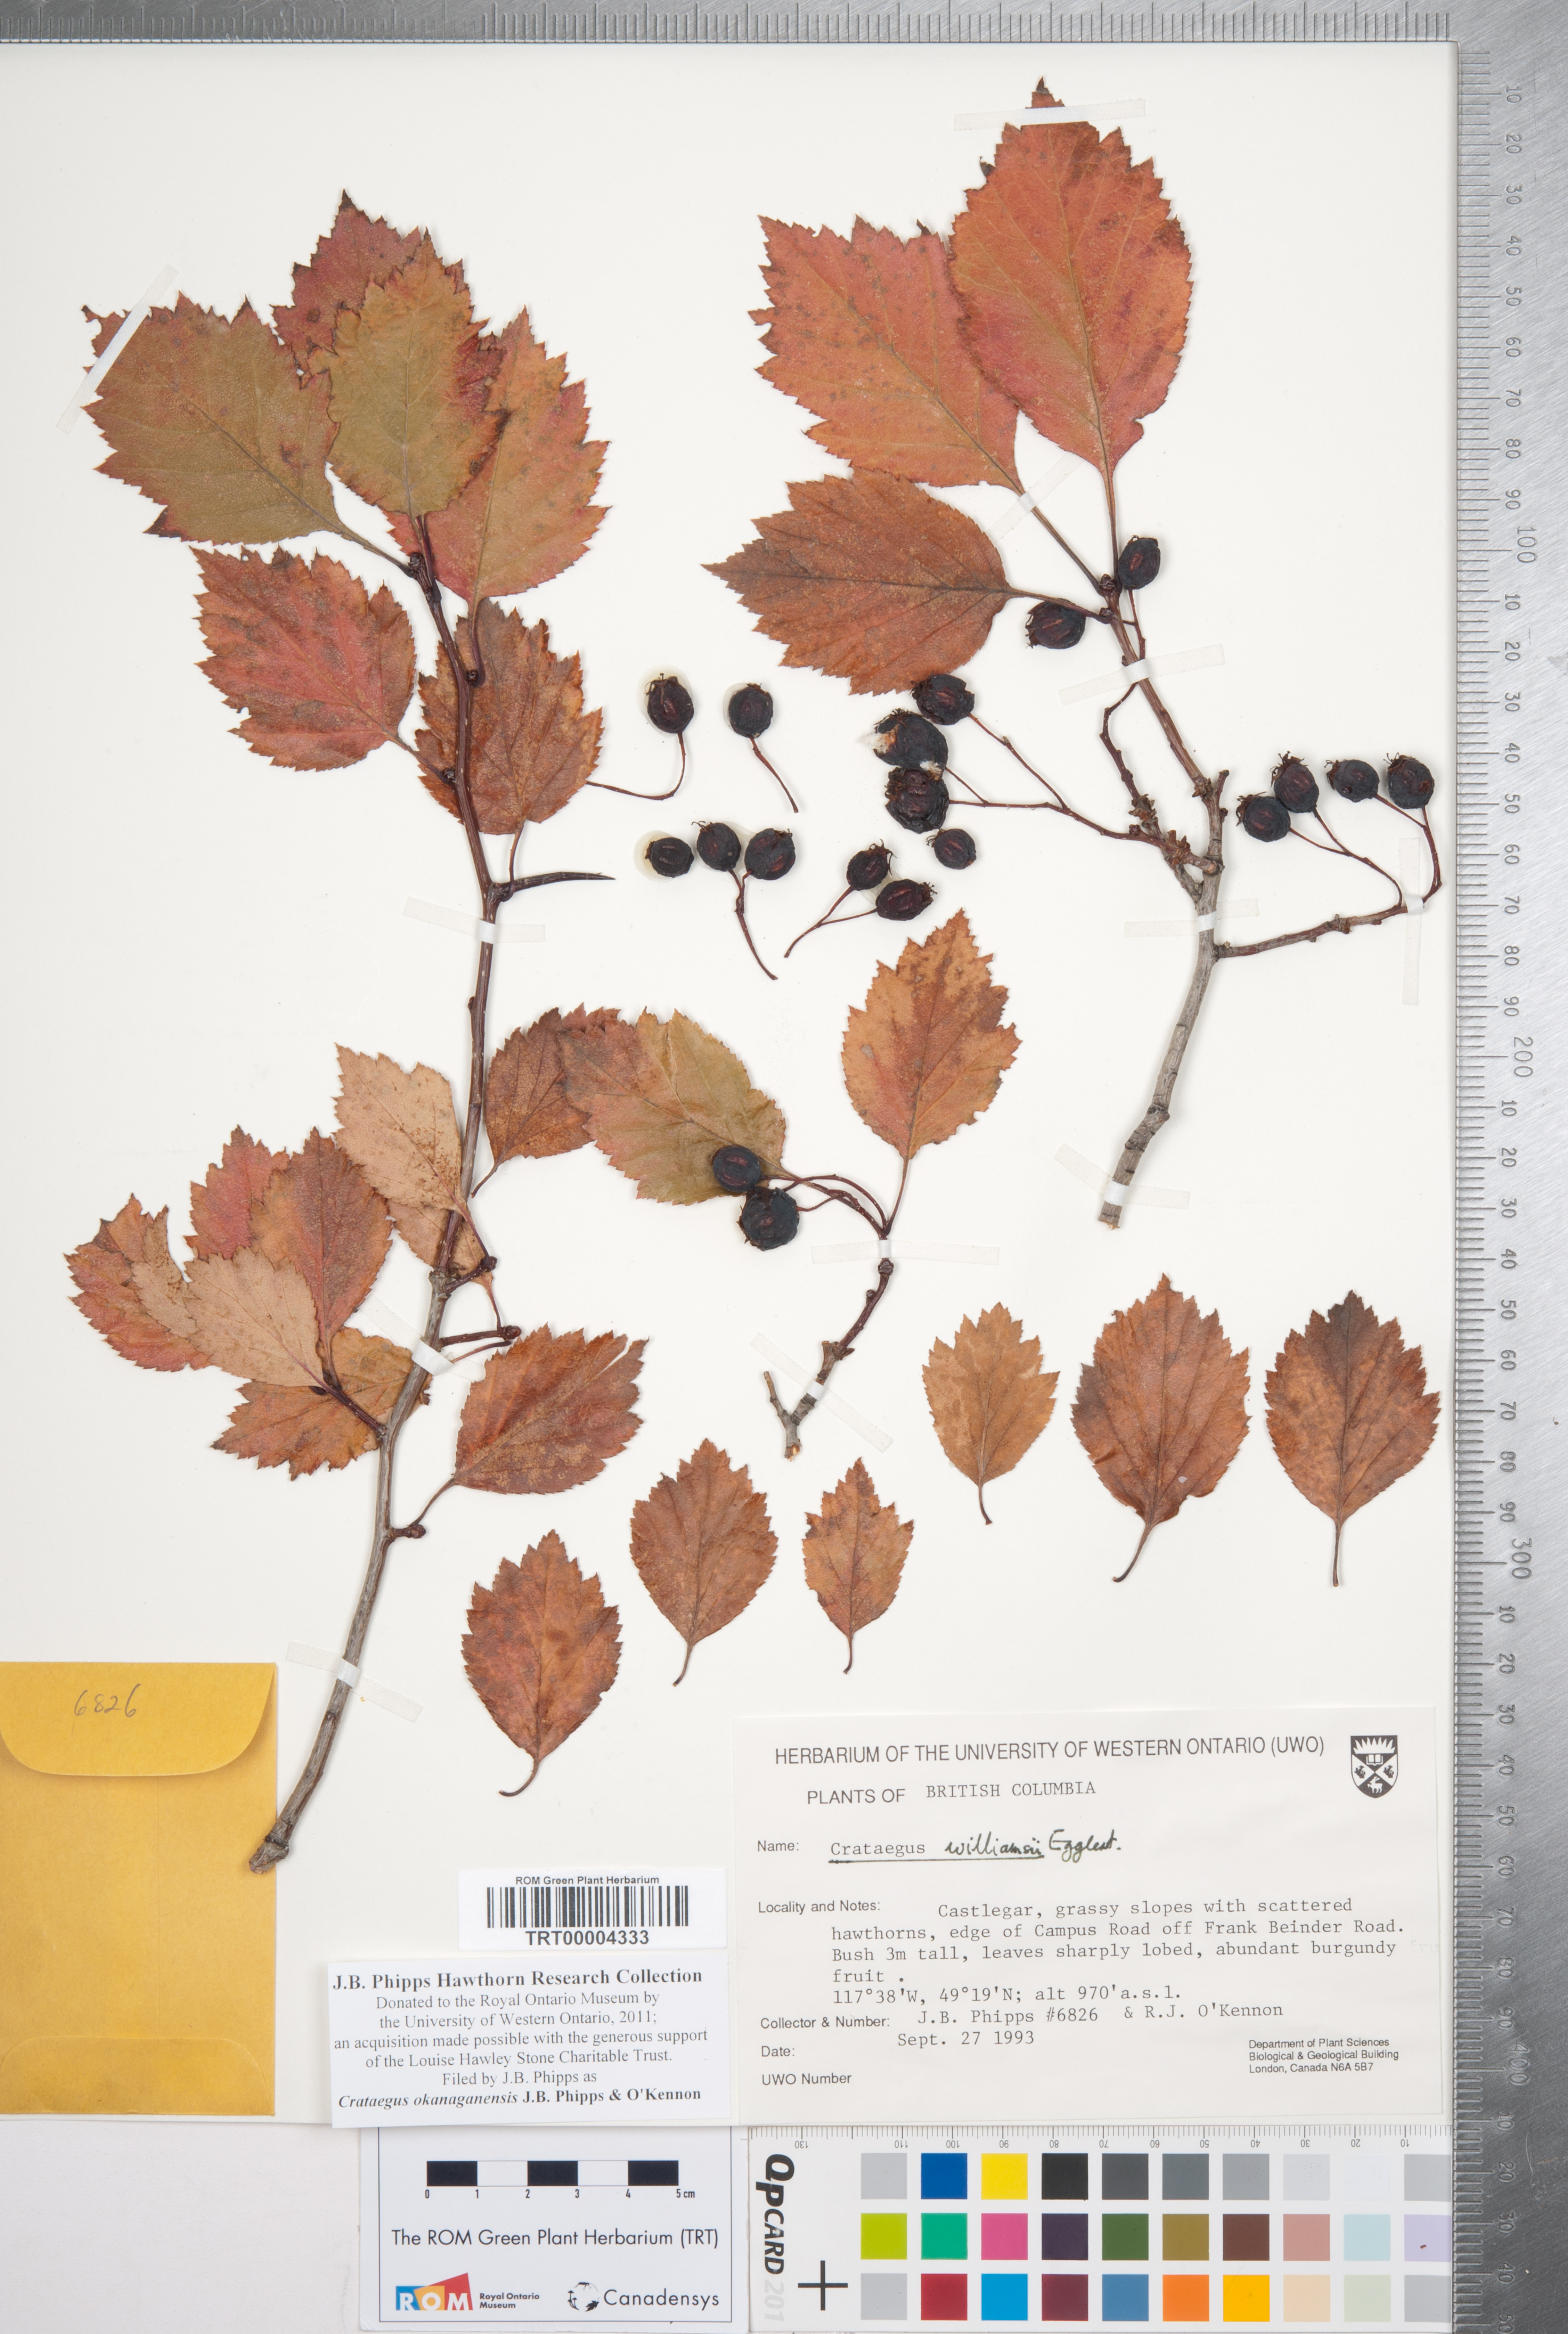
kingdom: Plantae
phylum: Tracheophyta
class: Magnoliopsida
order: Rosales
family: Rosaceae
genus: Crataegus
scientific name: Crataegus okanaganensis
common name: Okanagan valley hawthorn
